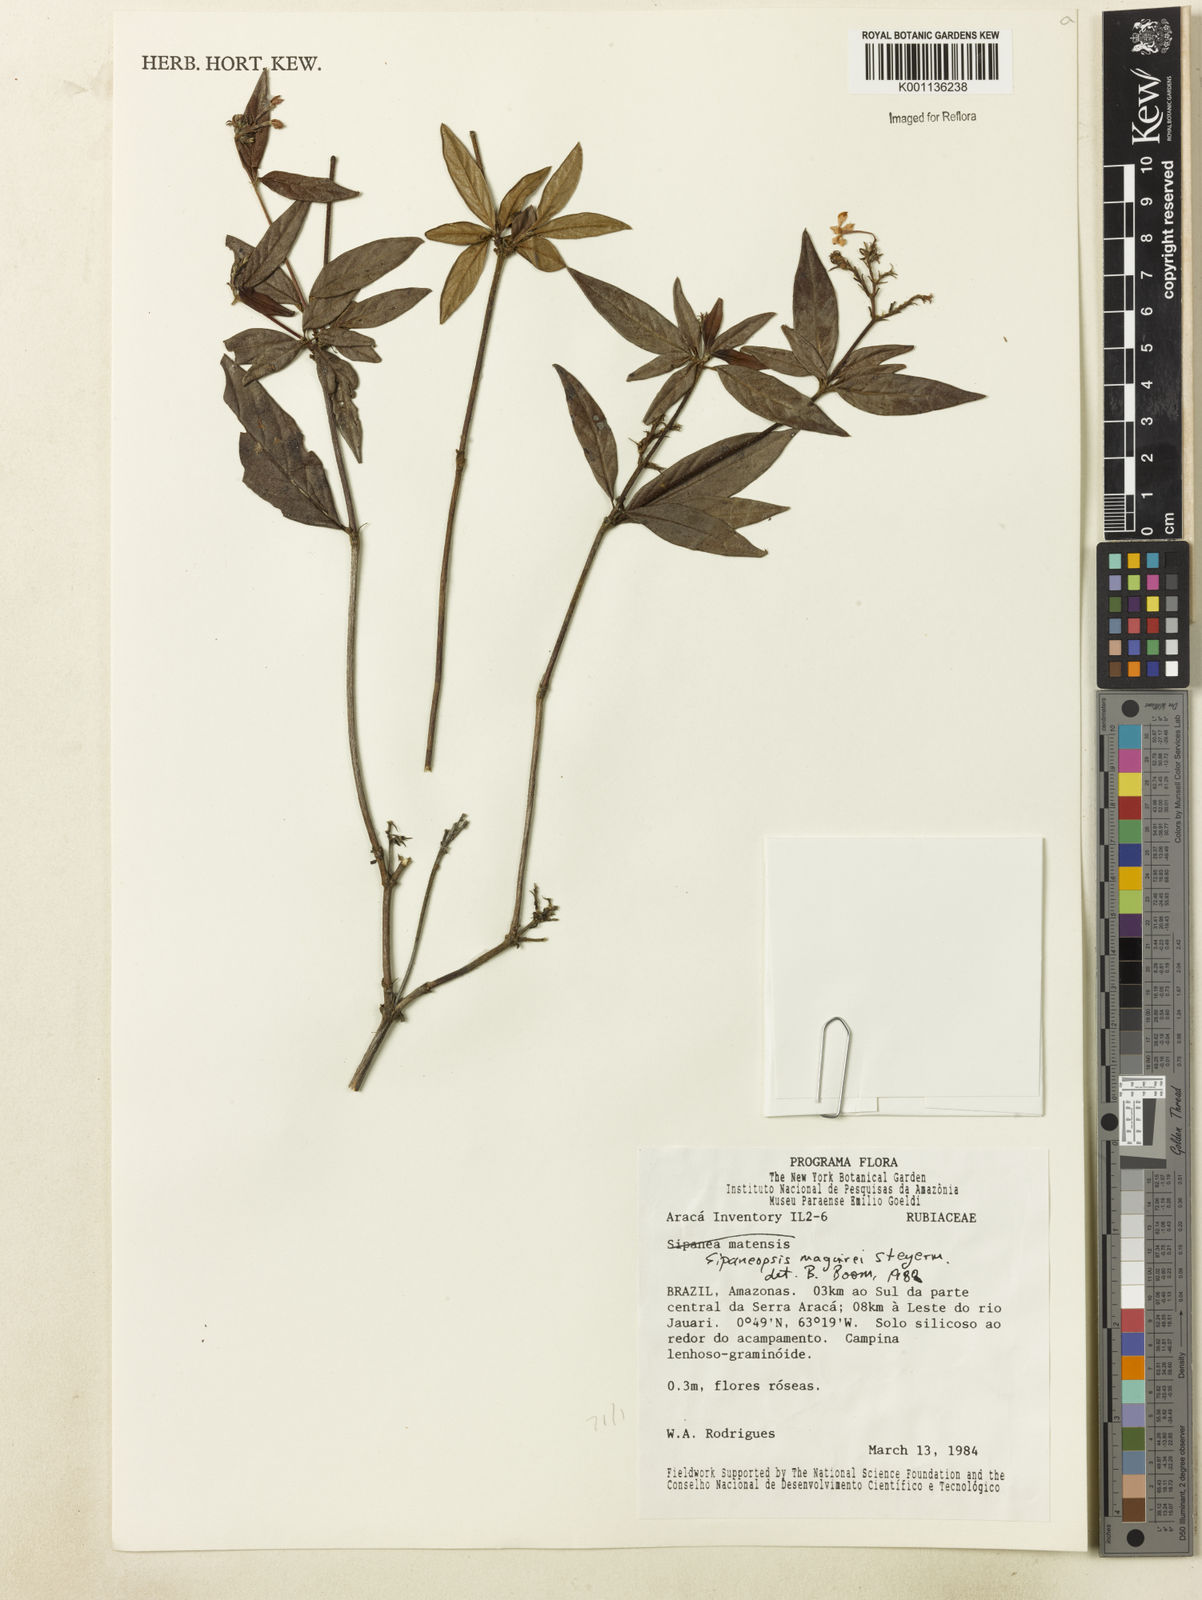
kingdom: Plantae
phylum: Tracheophyta
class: Magnoliopsida
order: Gentianales
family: Rubiaceae
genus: Sipaneopsis
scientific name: Sipaneopsis maguirei
